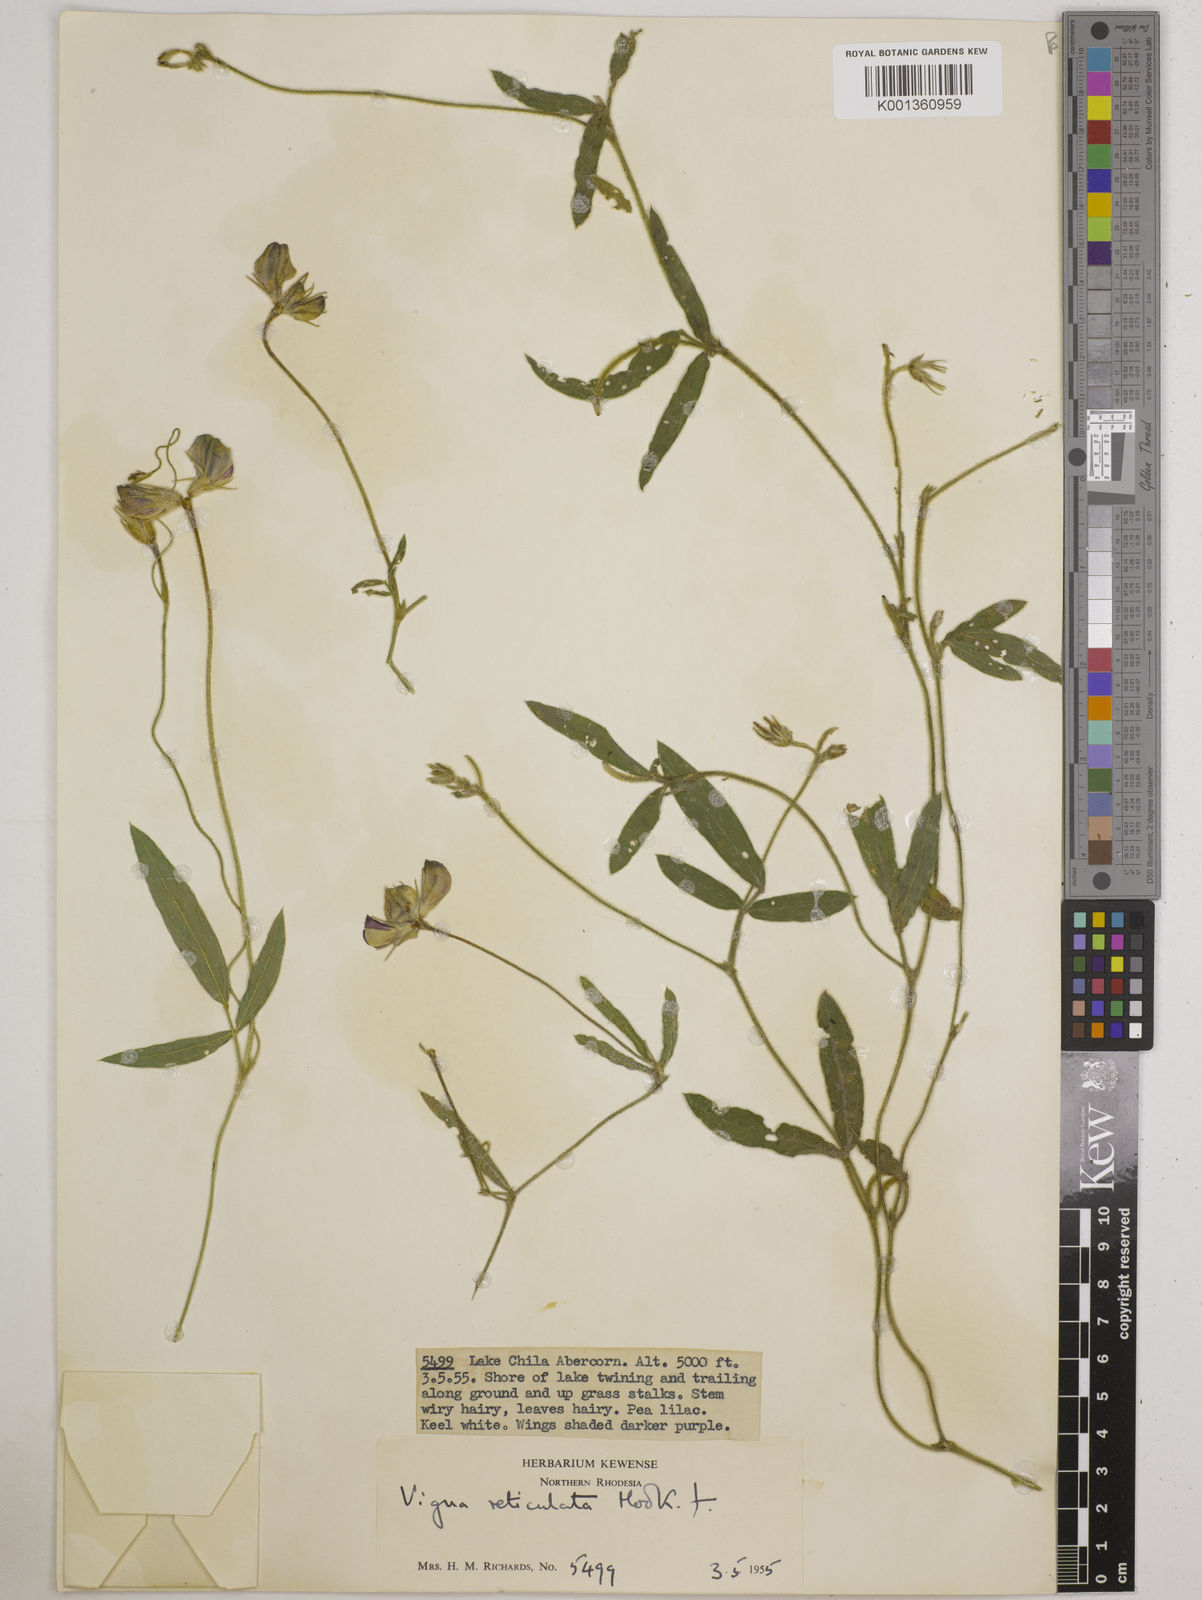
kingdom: Plantae
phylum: Tracheophyta
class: Magnoliopsida
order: Fabales
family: Fabaceae
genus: Vigna
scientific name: Vigna reticulata
